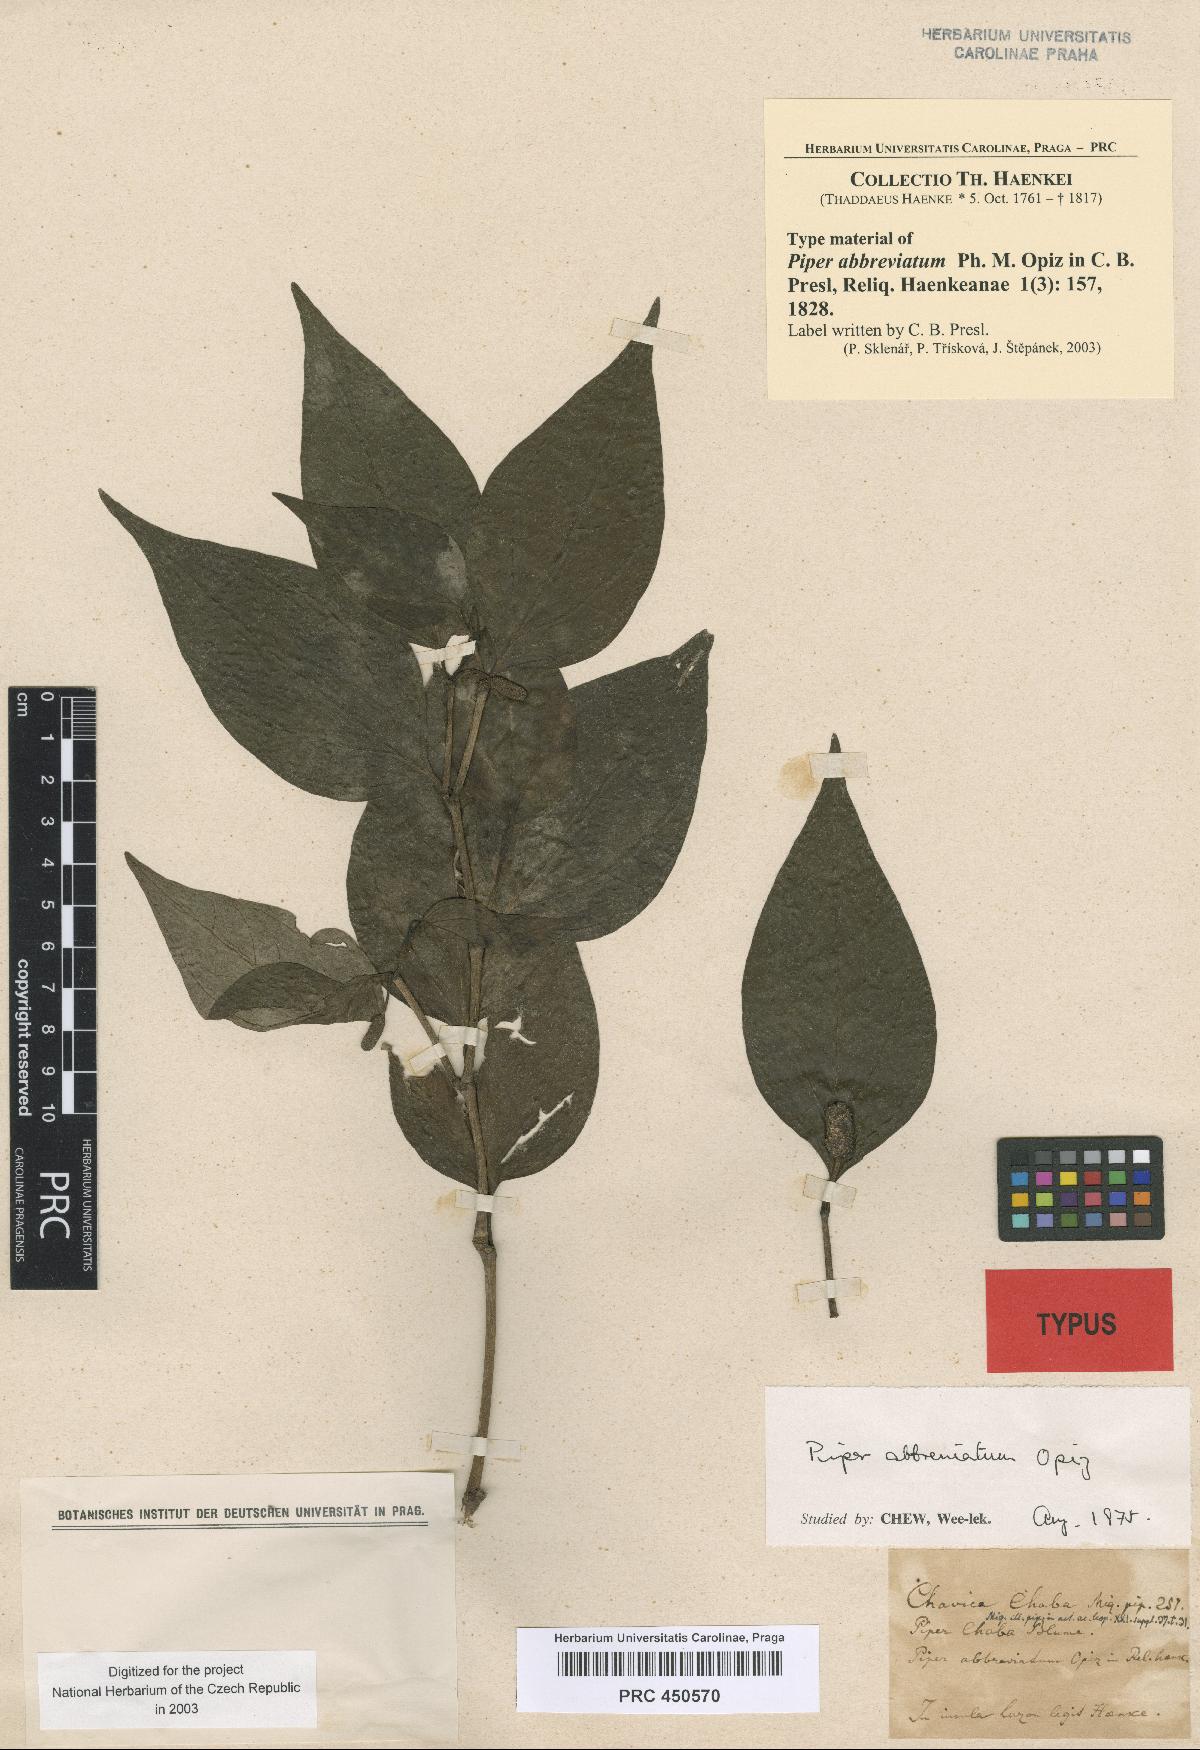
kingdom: Plantae
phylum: Tracheophyta
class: Magnoliopsida
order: Piperales
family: Piperaceae
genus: Piper
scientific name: Piper abbreviatum
